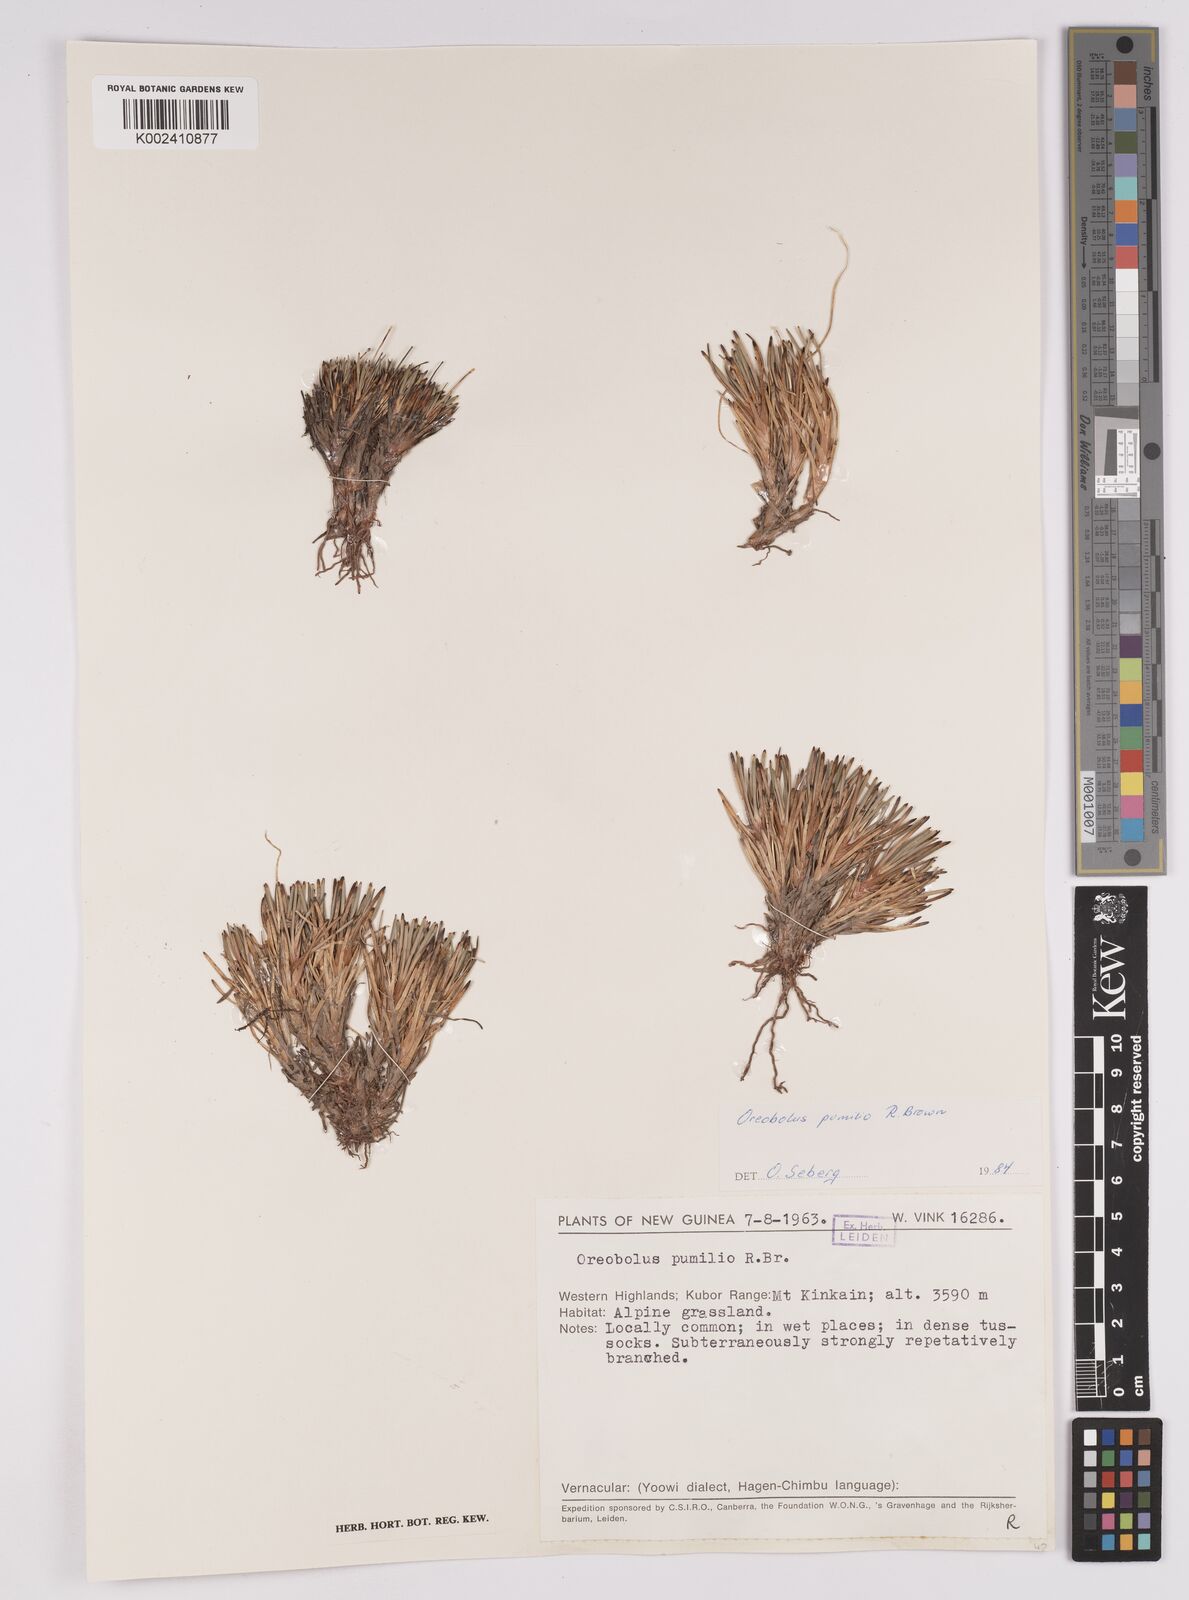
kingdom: Plantae
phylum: Tracheophyta
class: Liliopsida
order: Poales
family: Cyperaceae
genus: Oreobolus
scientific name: Oreobolus pumilio
